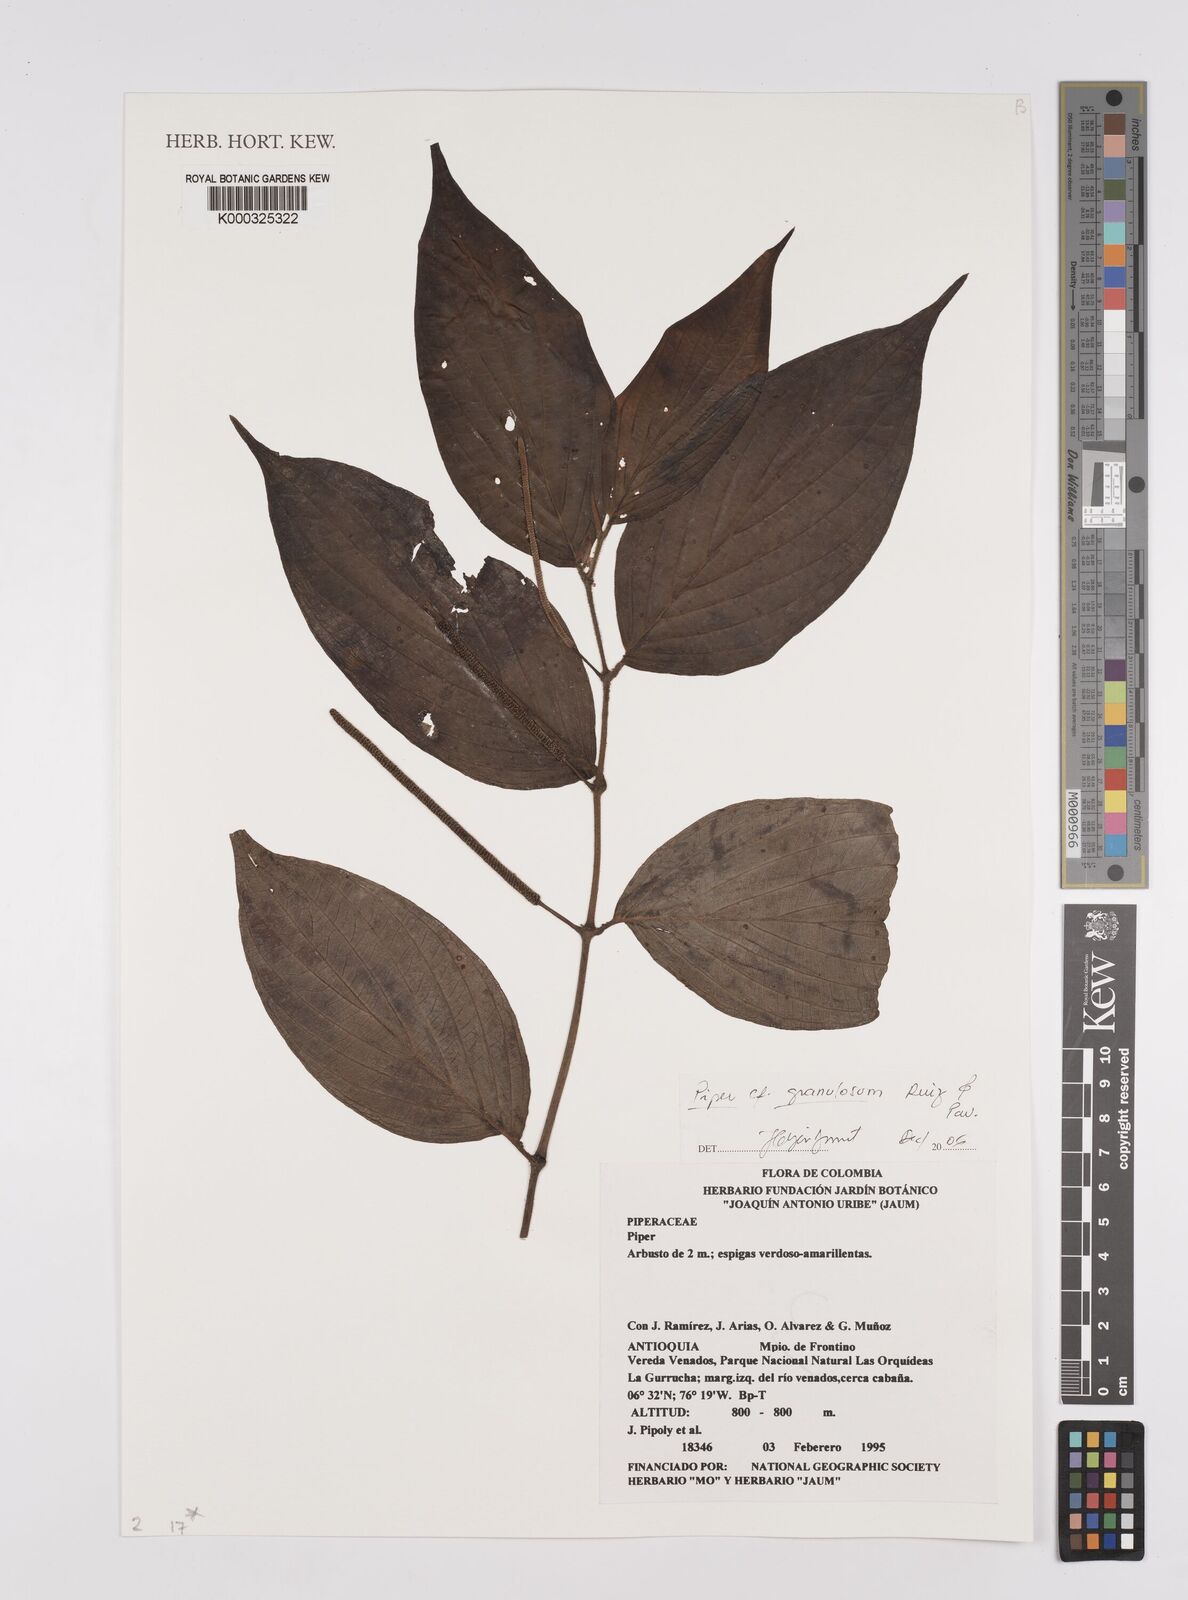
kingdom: Plantae
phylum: Tracheophyta
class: Magnoliopsida
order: Piperales
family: Piperaceae
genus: Piper
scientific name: Piper aduncum
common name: Spiked pepper
